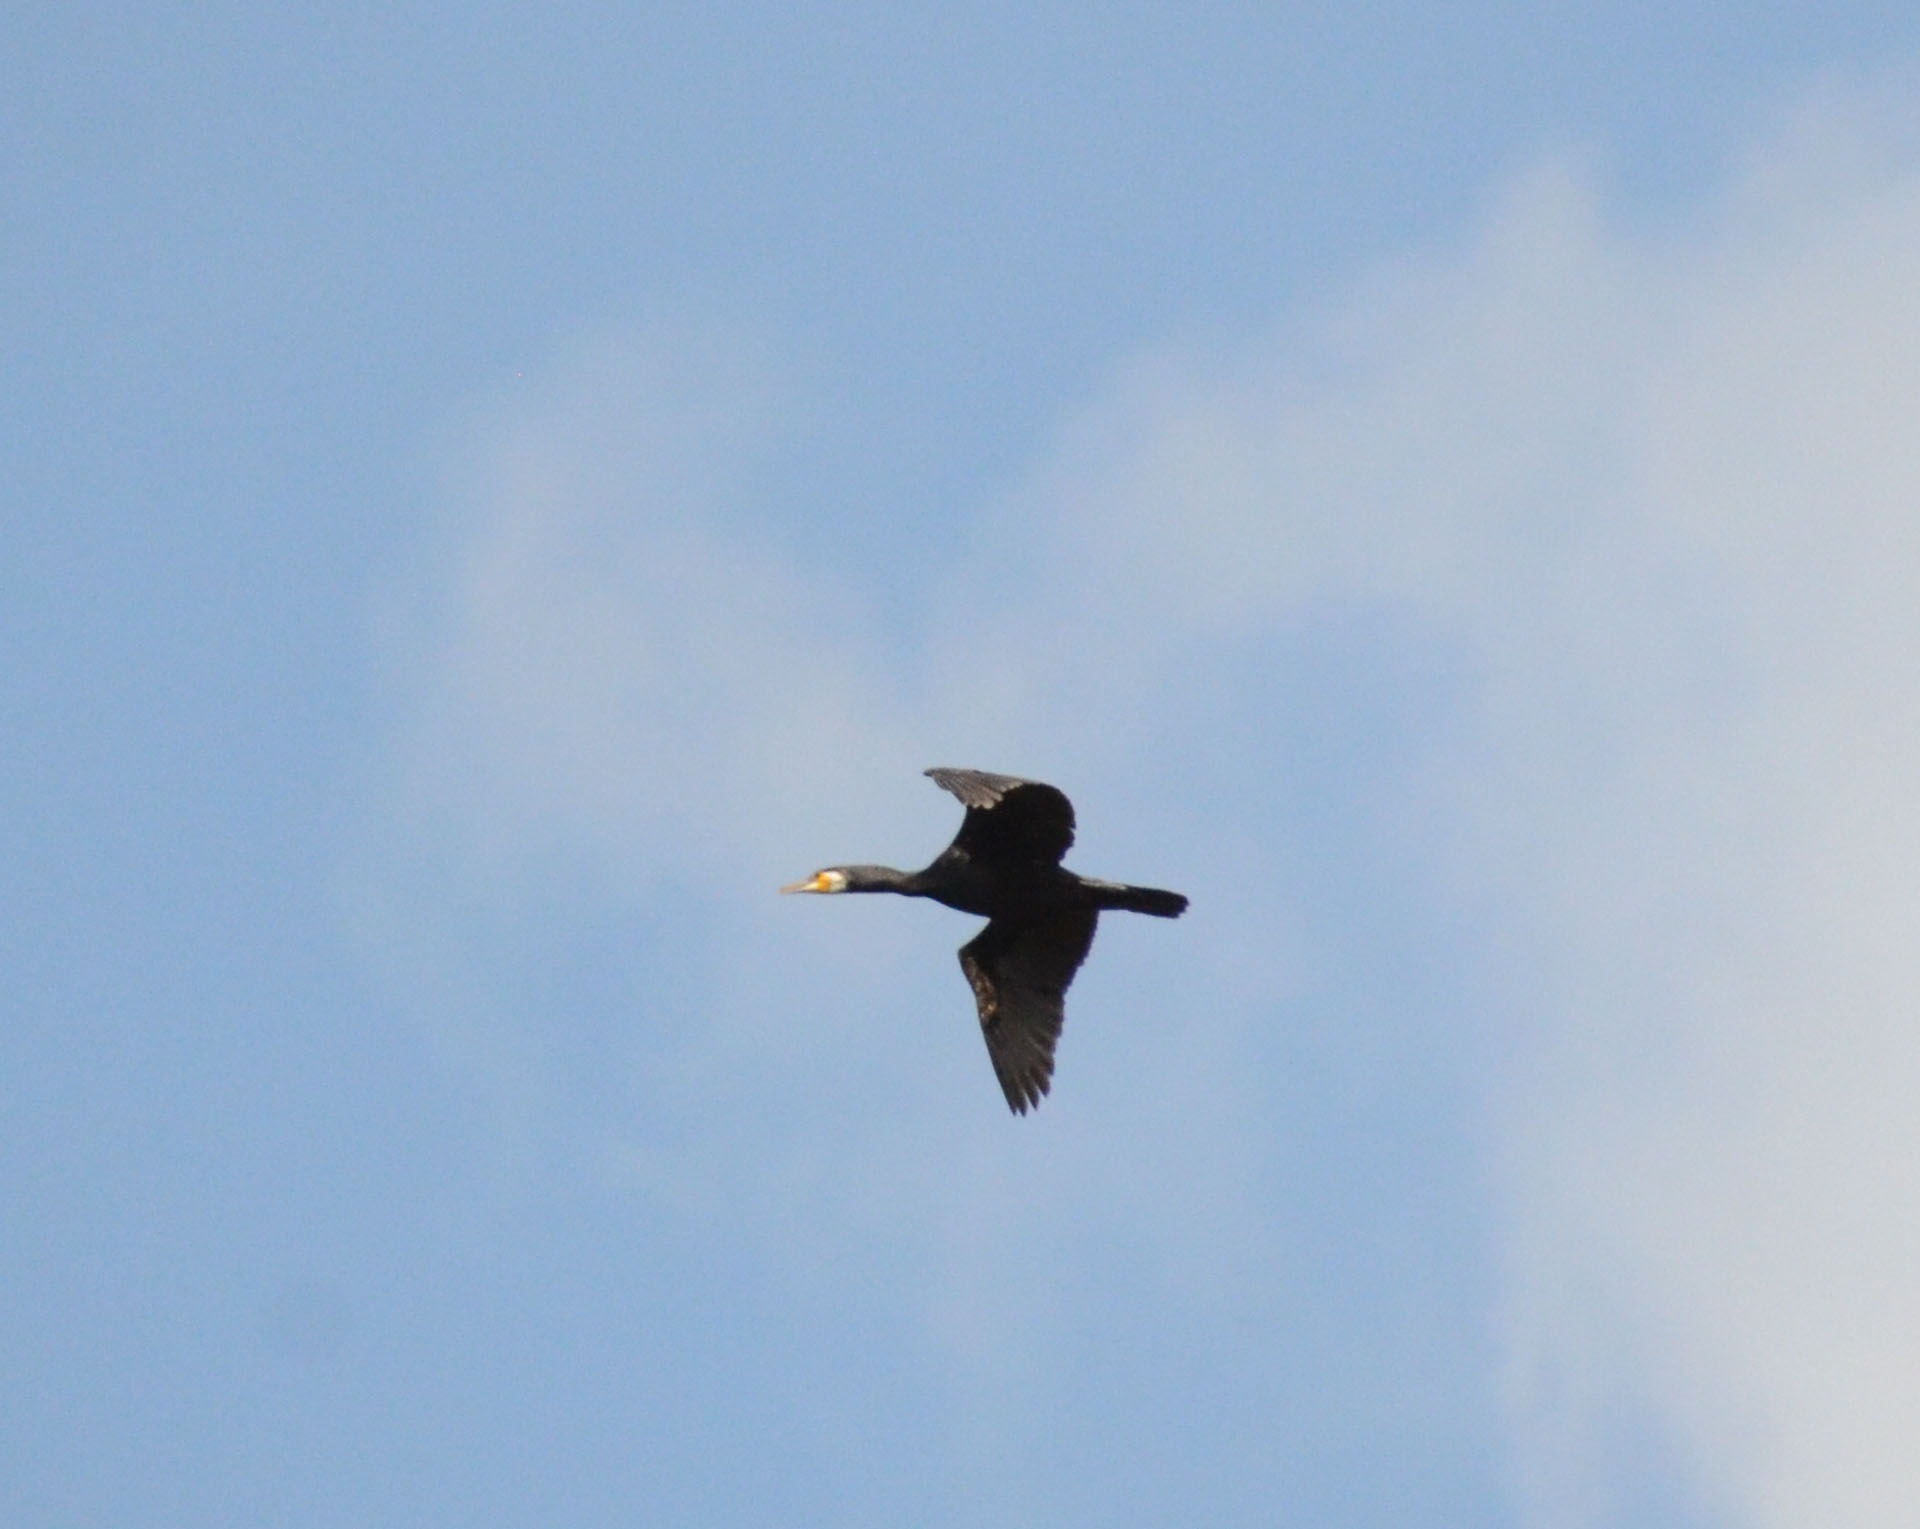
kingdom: Animalia
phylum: Chordata
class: Aves
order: Suliformes
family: Phalacrocoracidae
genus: Phalacrocorax
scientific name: Phalacrocorax carbo
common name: Skarv
